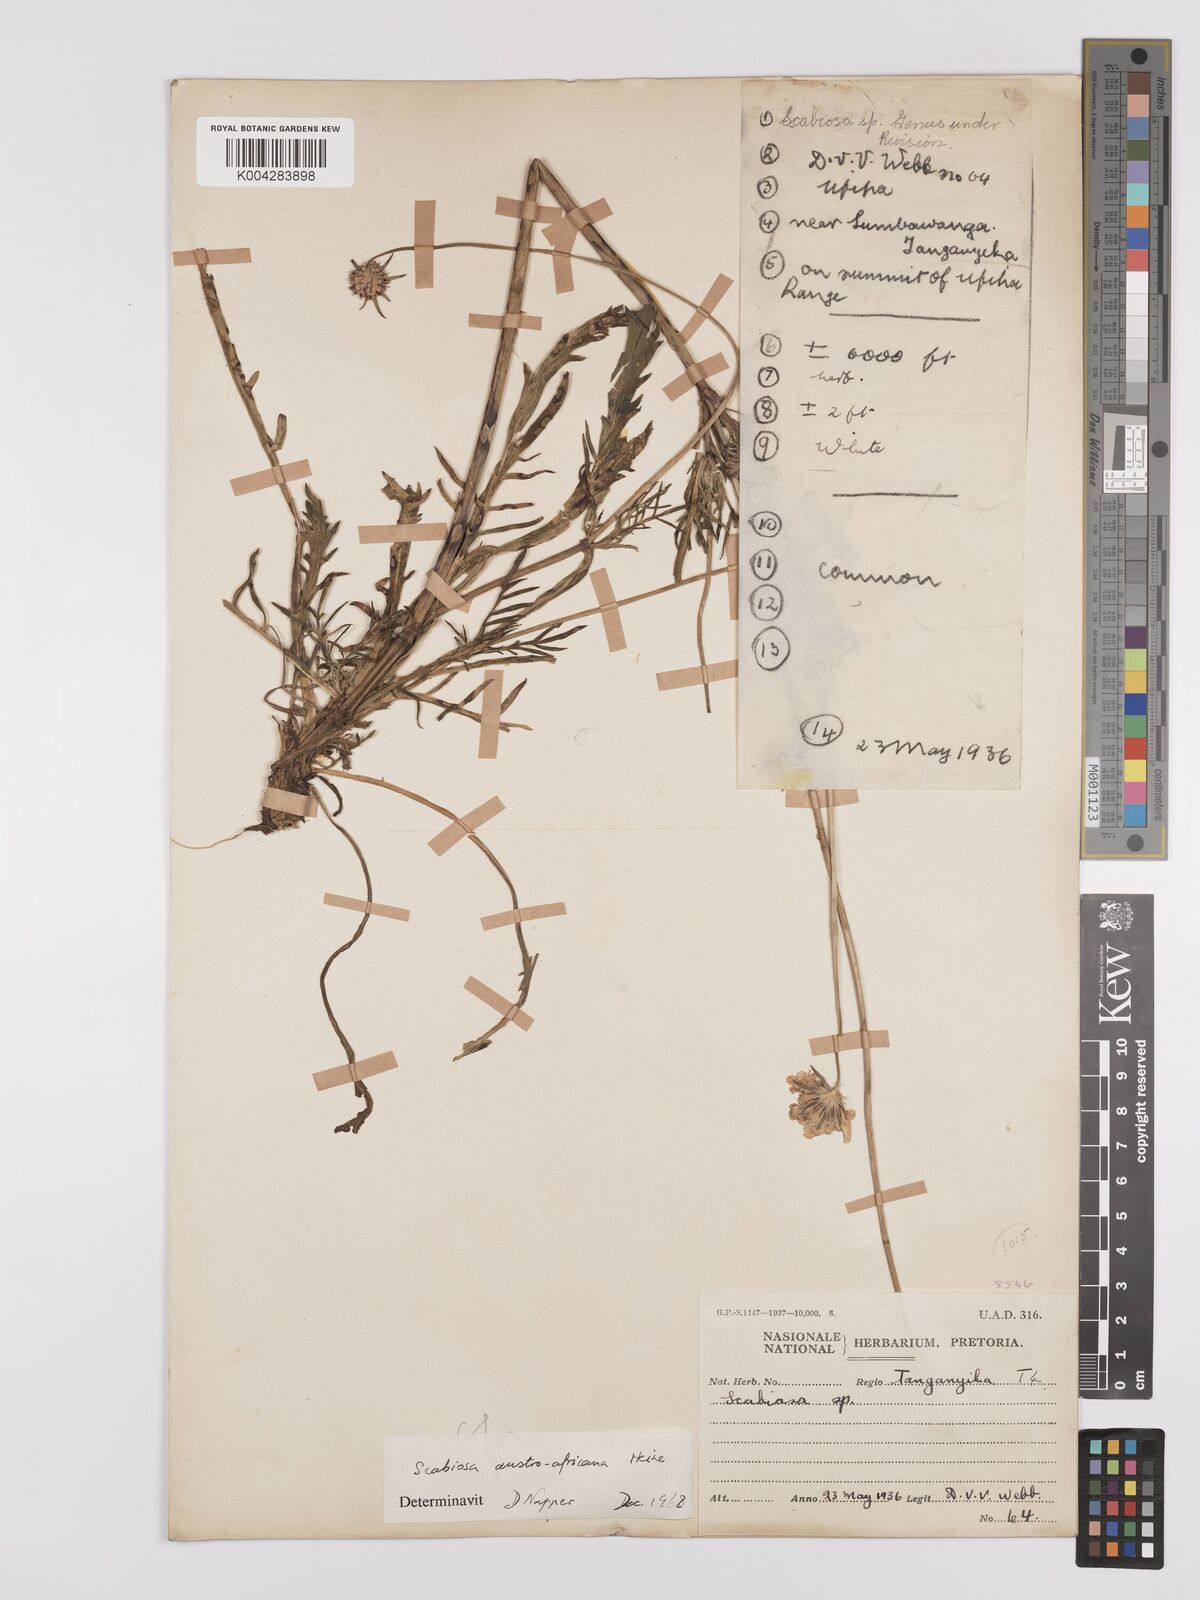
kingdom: Plantae
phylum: Tracheophyta
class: Magnoliopsida
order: Dipsacales
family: Caprifoliaceae
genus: Scabiosa
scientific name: Scabiosa austroafricana
